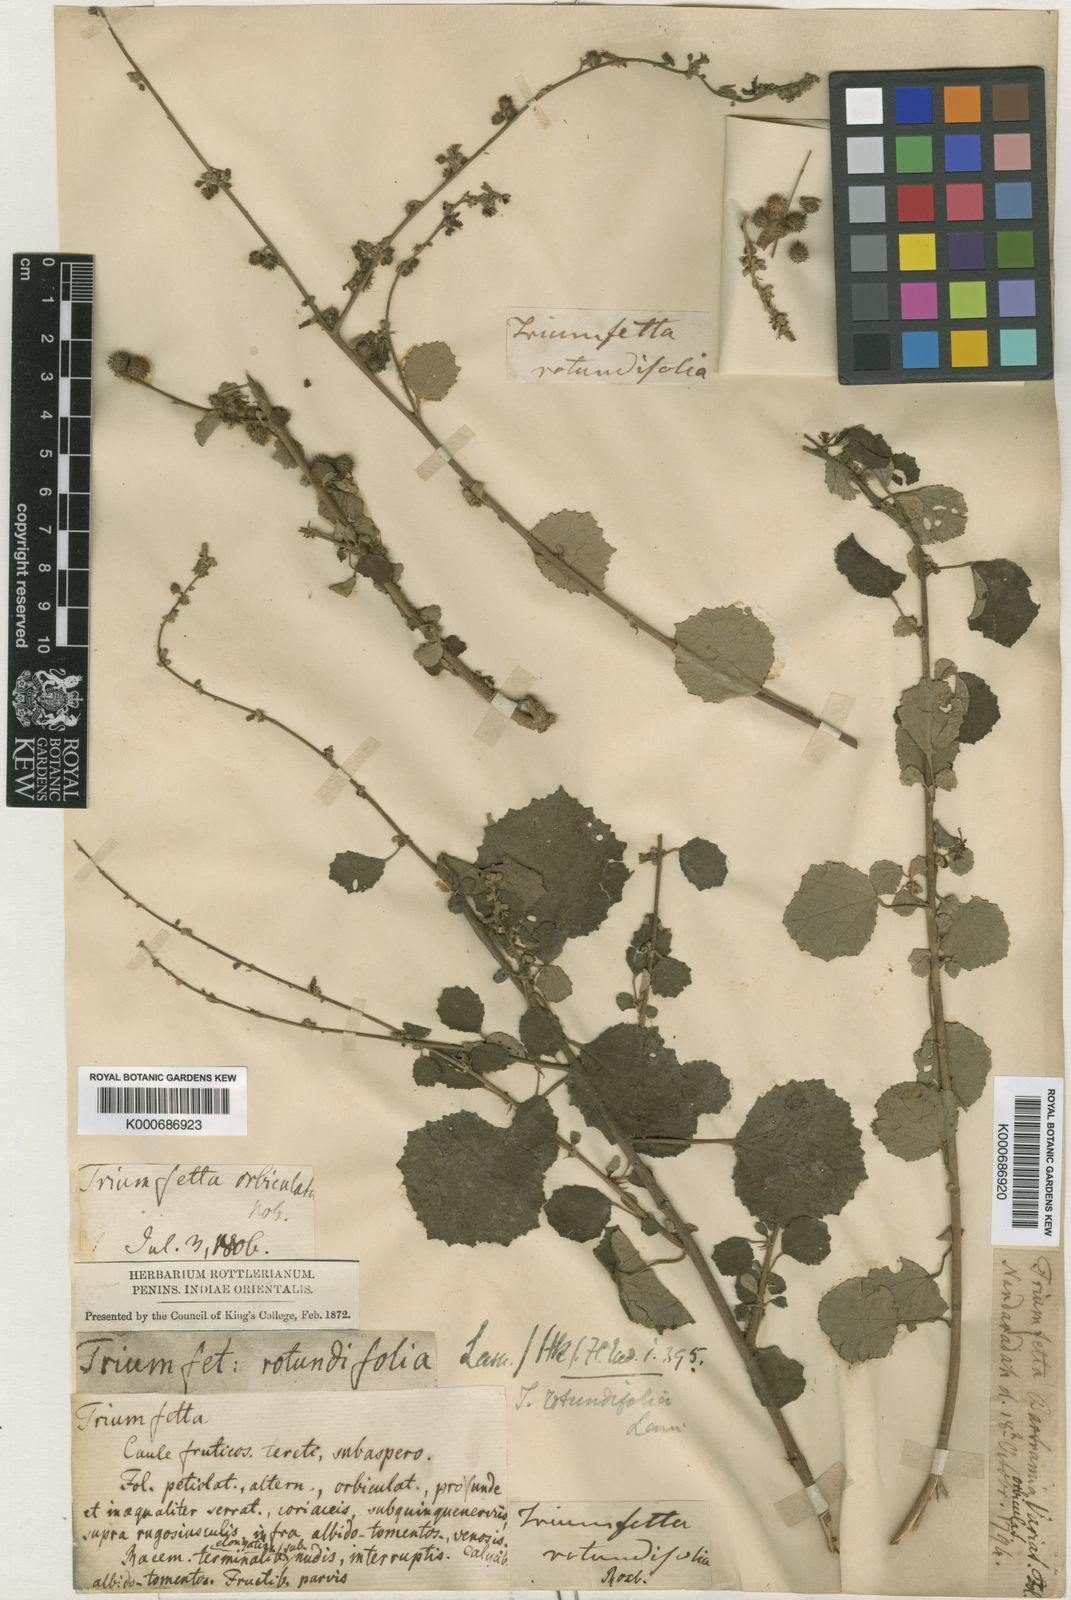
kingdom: Plantae
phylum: Tracheophyta
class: Magnoliopsida
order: Malvales
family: Malvaceae
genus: Triumfetta
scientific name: Triumfetta rotundifolia
